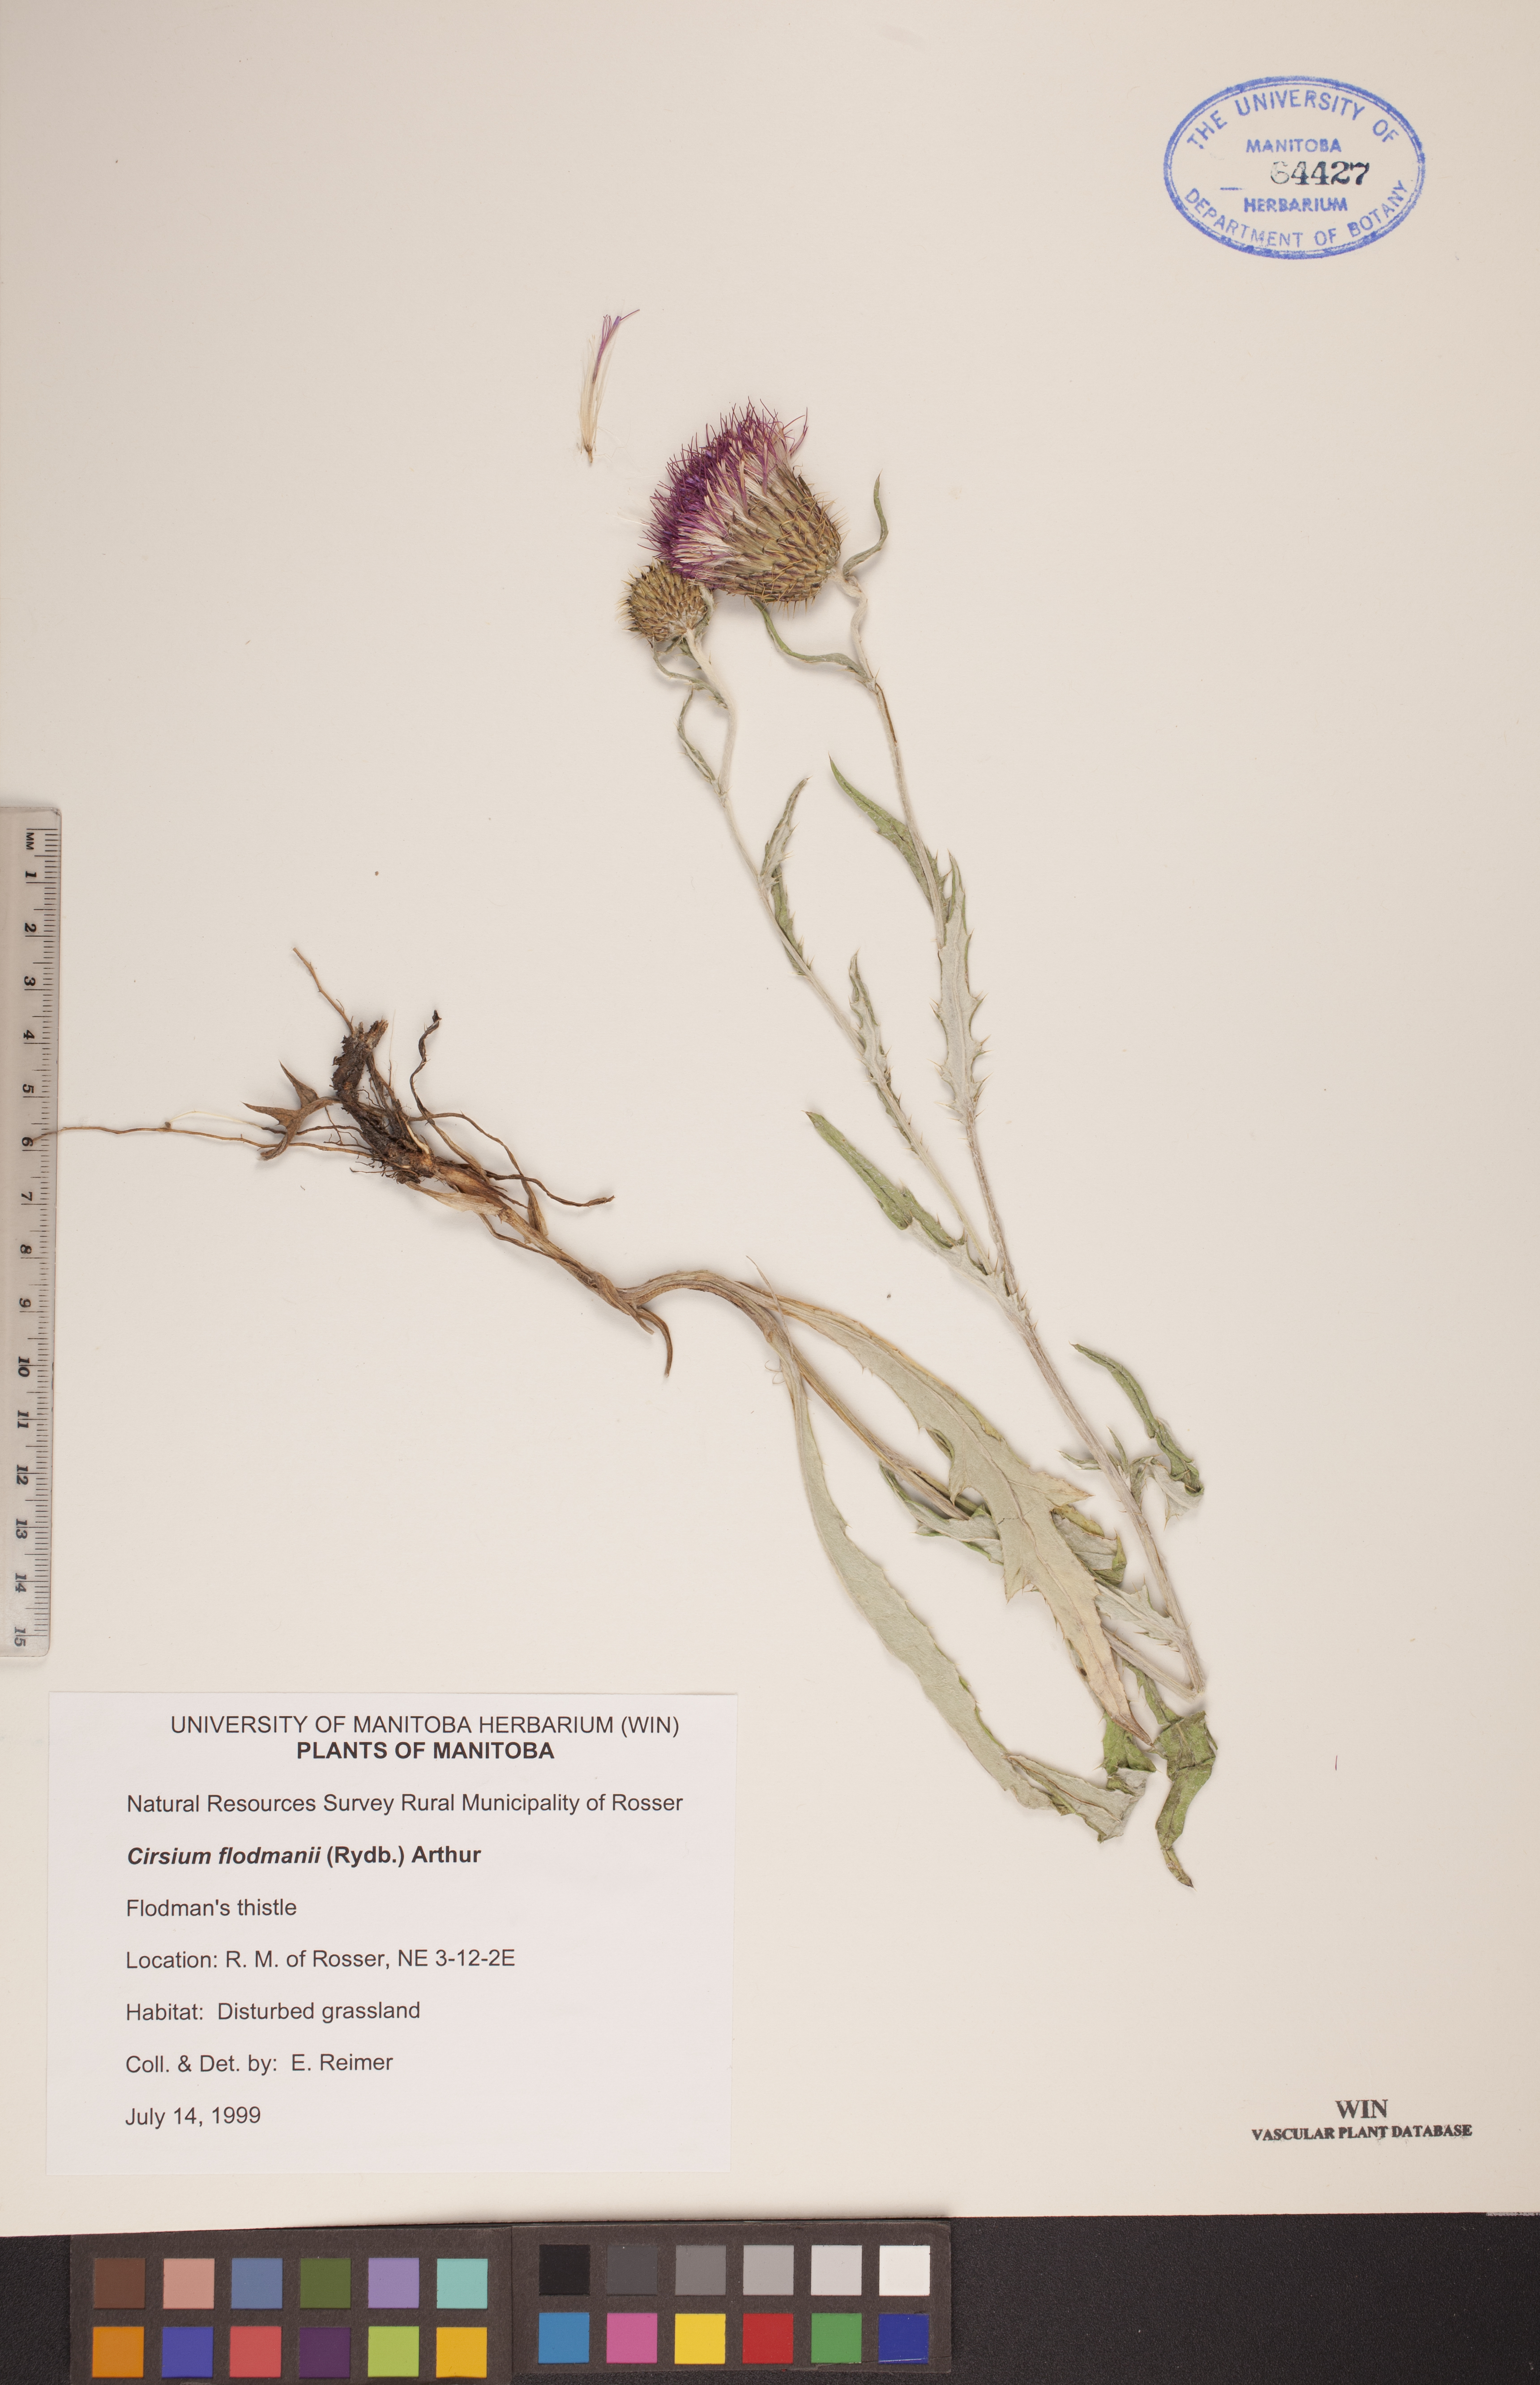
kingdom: Plantae
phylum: Tracheophyta
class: Magnoliopsida
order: Asterales
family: Asteraceae
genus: Cirsium
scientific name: Cirsium flodmanii
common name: Flodman's thistle
